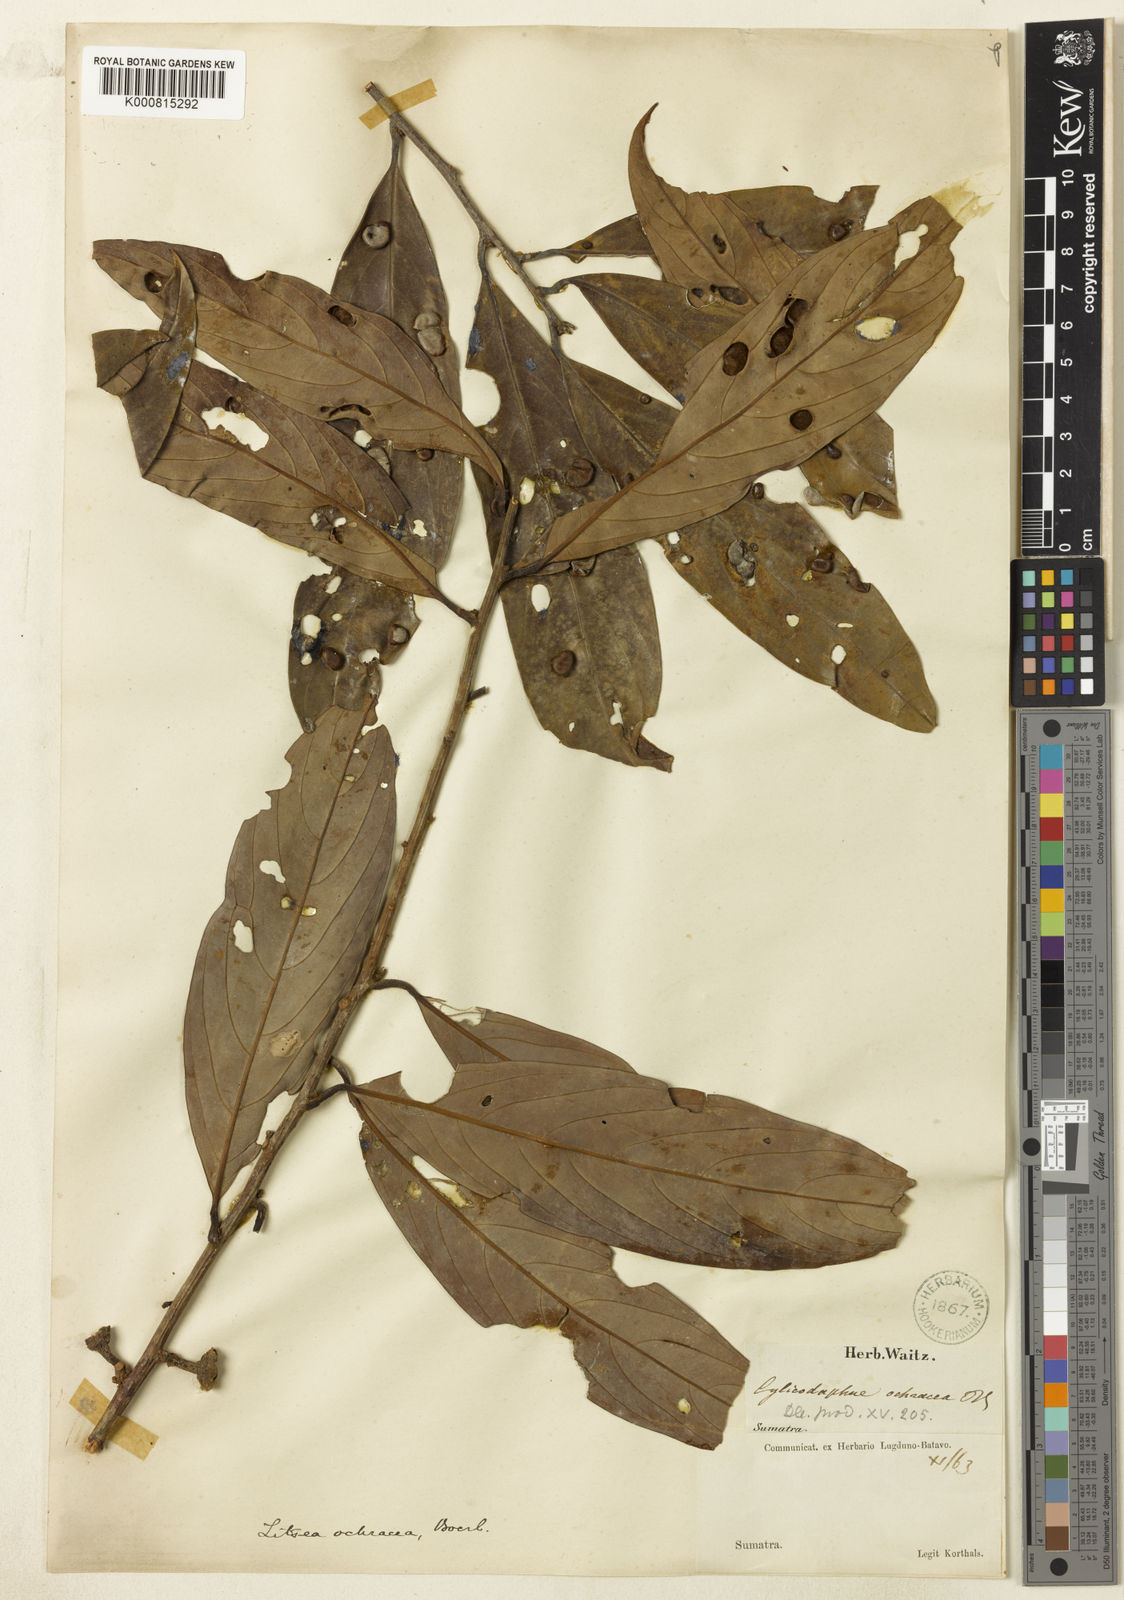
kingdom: Plantae
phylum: Tracheophyta
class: Magnoliopsida
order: Laurales
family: Lauraceae
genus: Litsea
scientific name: Litsea accedens
